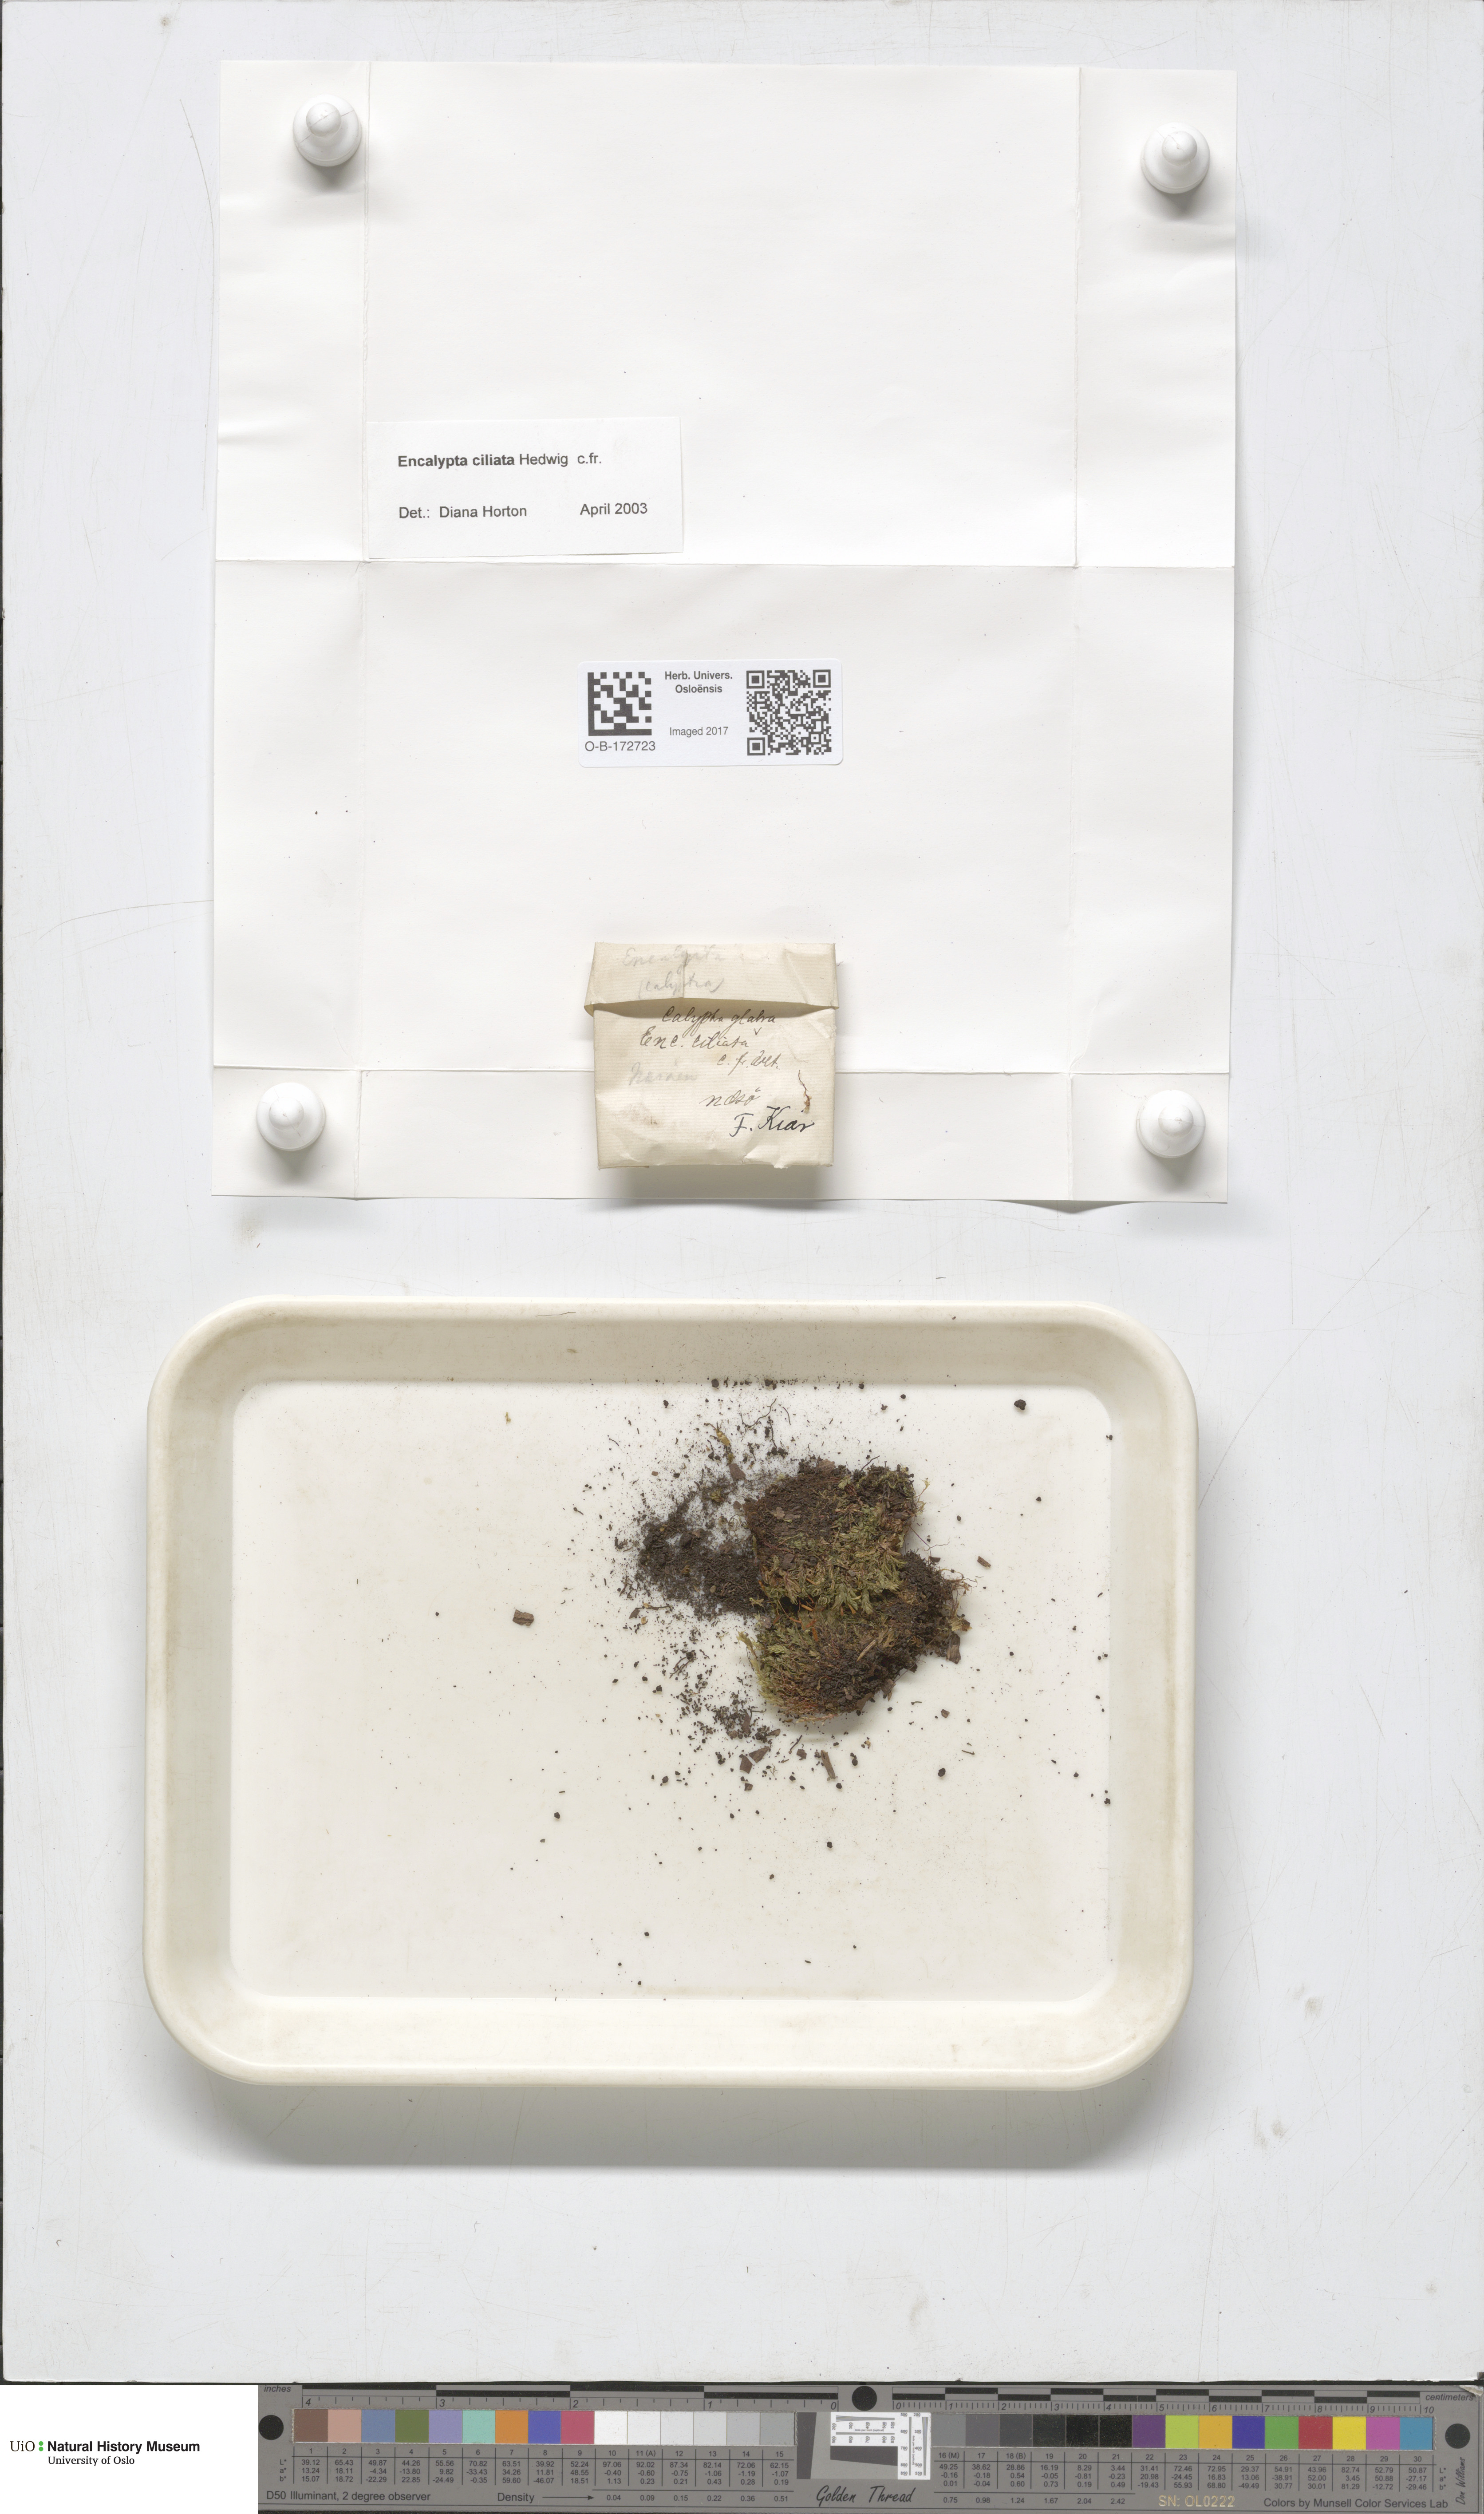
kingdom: Plantae
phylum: Bryophyta
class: Bryopsida
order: Encalyptales
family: Encalyptaceae
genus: Encalypta
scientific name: Encalypta ciliata
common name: Fringed extinguisher-moss
